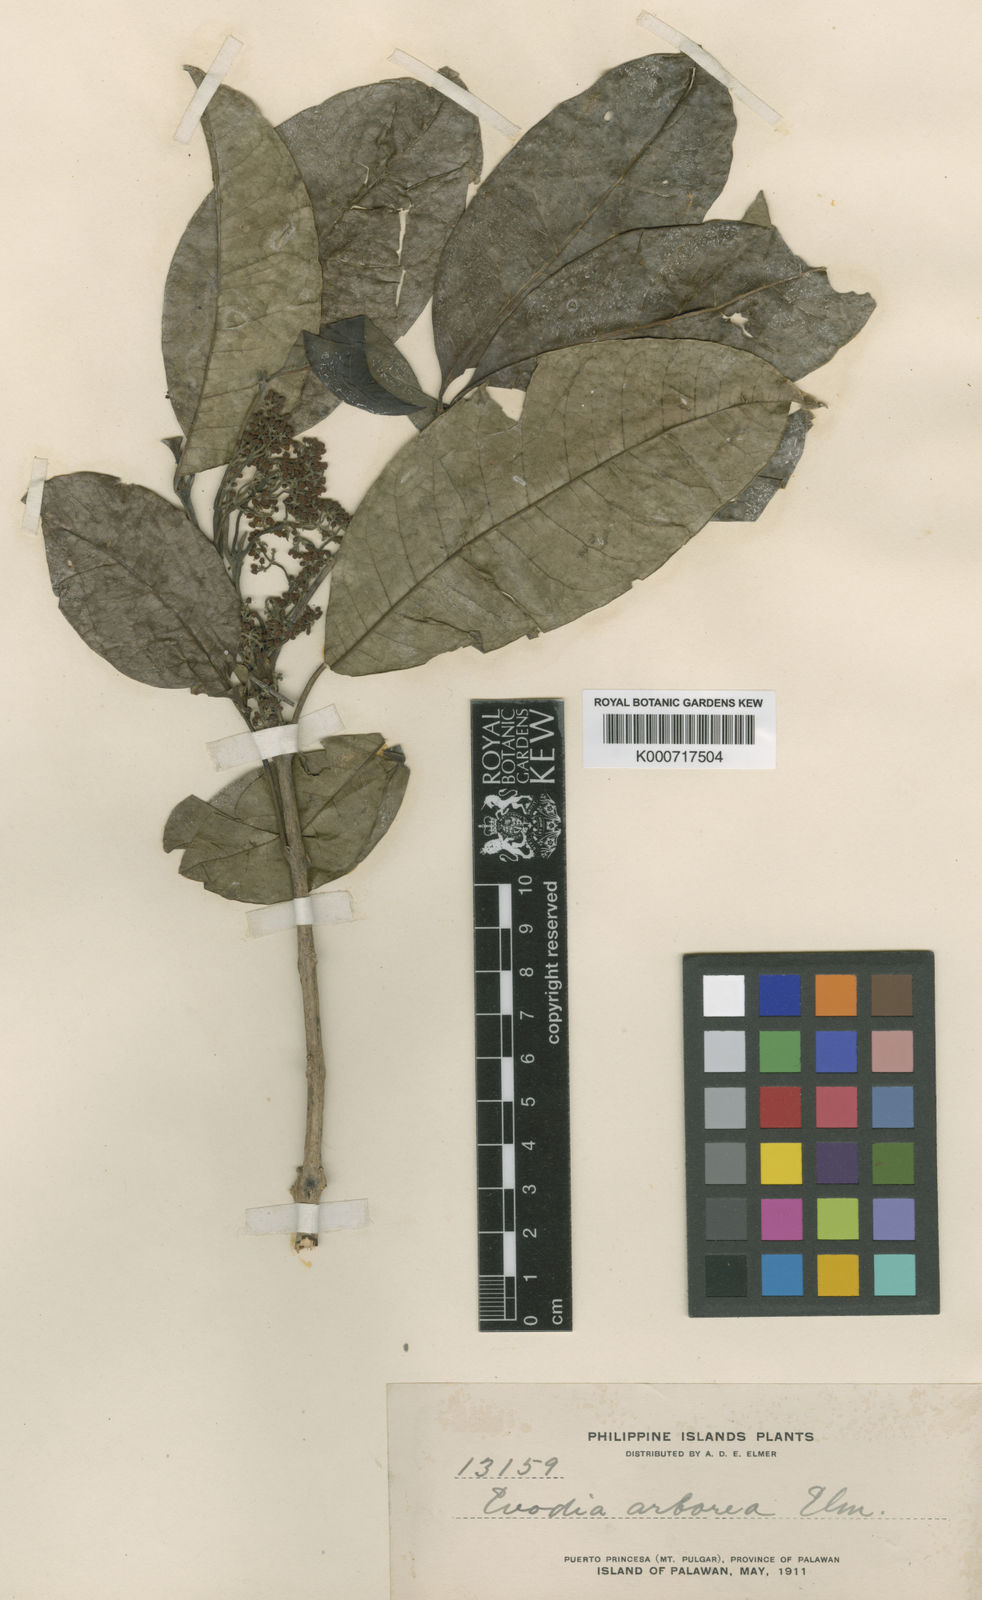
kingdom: Plantae
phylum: Tracheophyta
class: Magnoliopsida
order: Sapindales
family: Rutaceae
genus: Melicope
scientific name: Melicope lunu-ankenda
